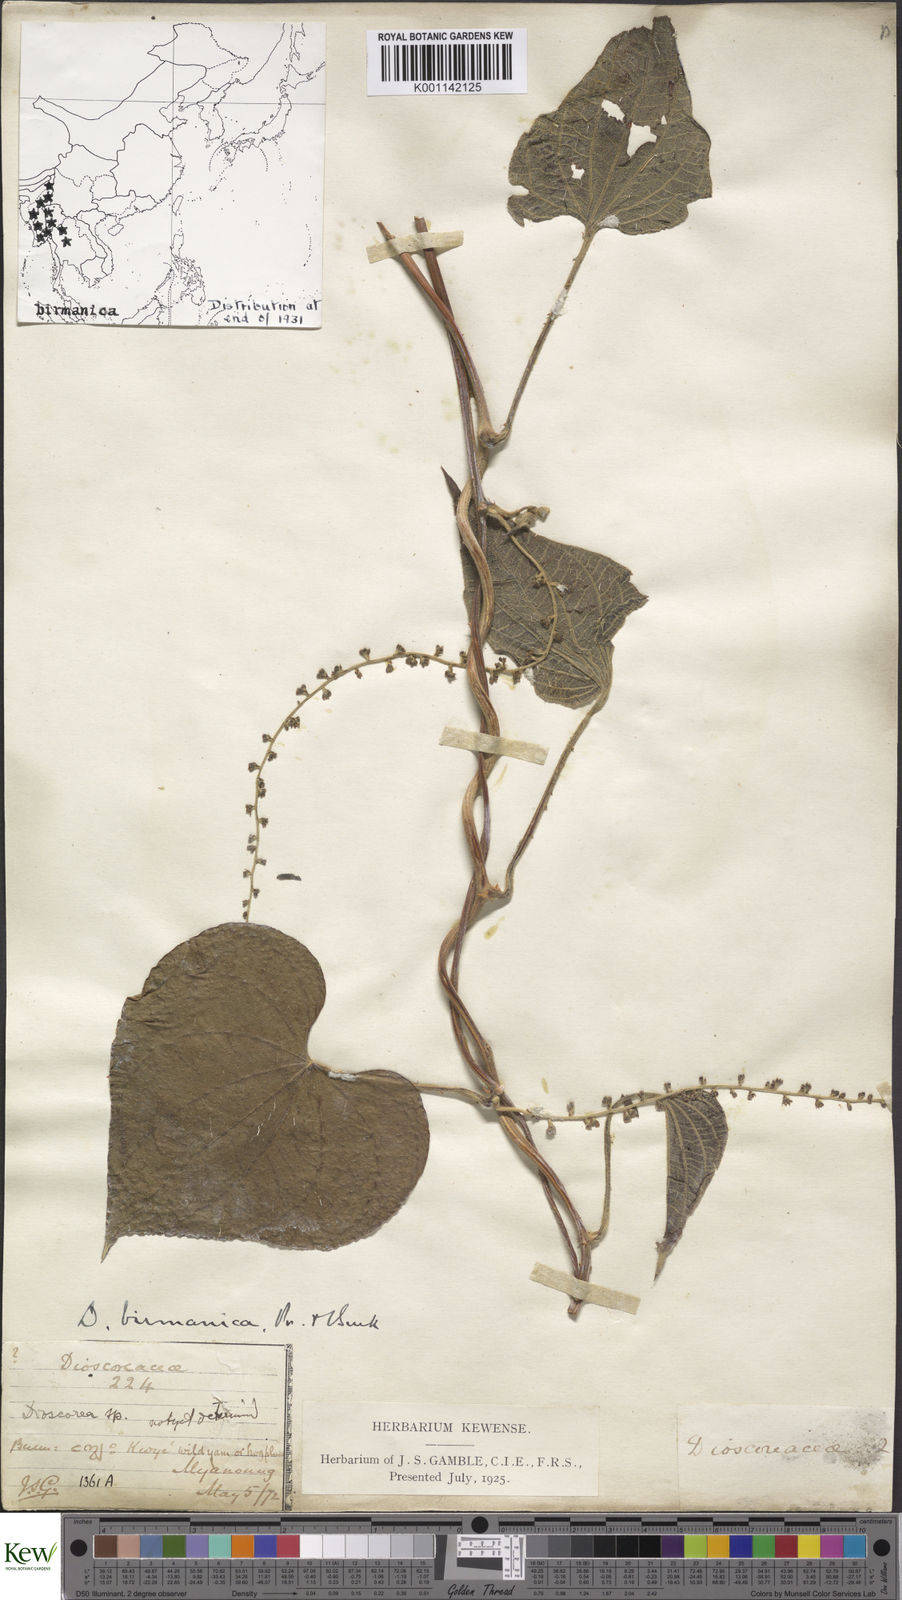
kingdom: Plantae
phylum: Tracheophyta
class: Liliopsida
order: Dioscoreales
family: Dioscoreaceae
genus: Dioscorea
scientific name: Dioscorea birmanica
